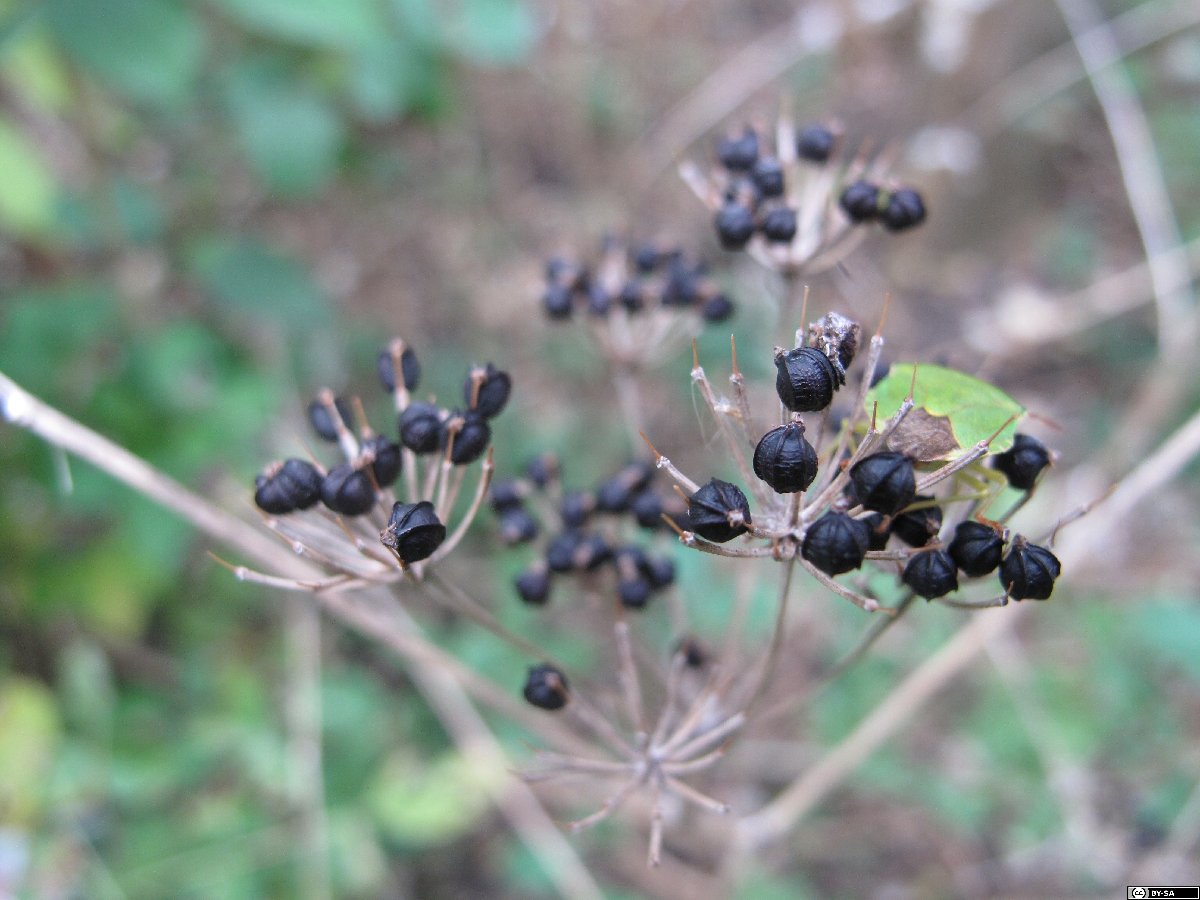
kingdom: Plantae
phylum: Tracheophyta
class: Magnoliopsida
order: Apiales
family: Apiaceae
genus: Smyrnium
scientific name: Smyrnium perfoliatum
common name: Perfoliate alexanders
